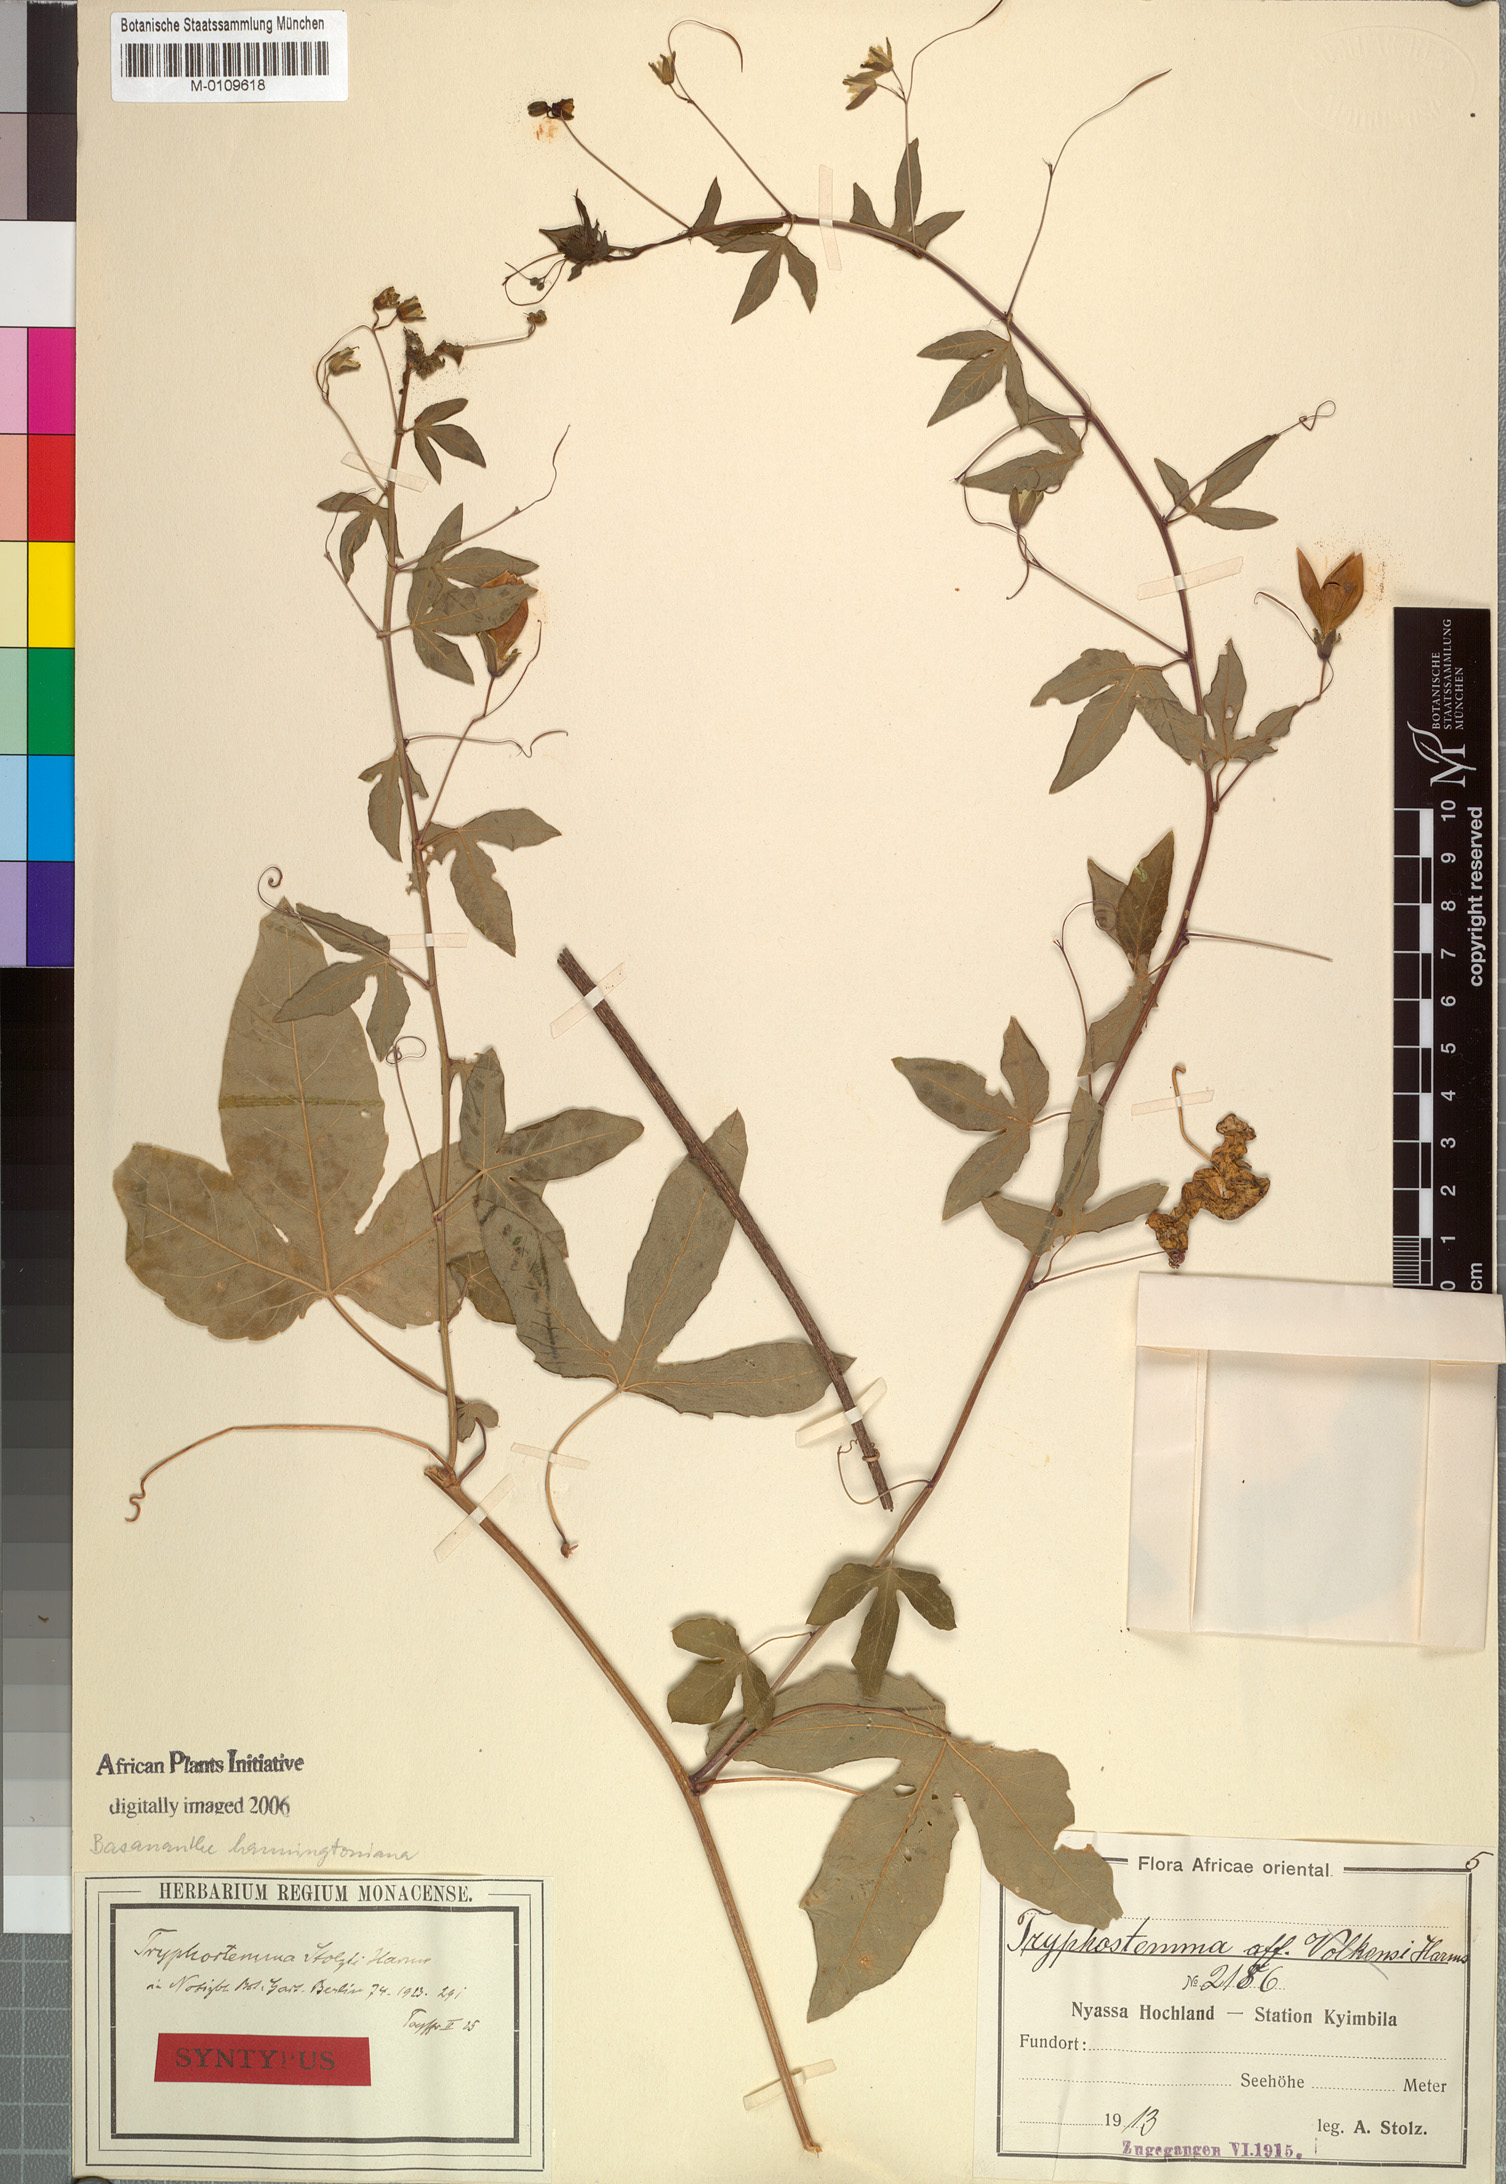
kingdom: Plantae
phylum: Tracheophyta
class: Magnoliopsida
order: Malpighiales
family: Passifloraceae
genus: Basananthe
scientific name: Basananthe hanningtoniana
